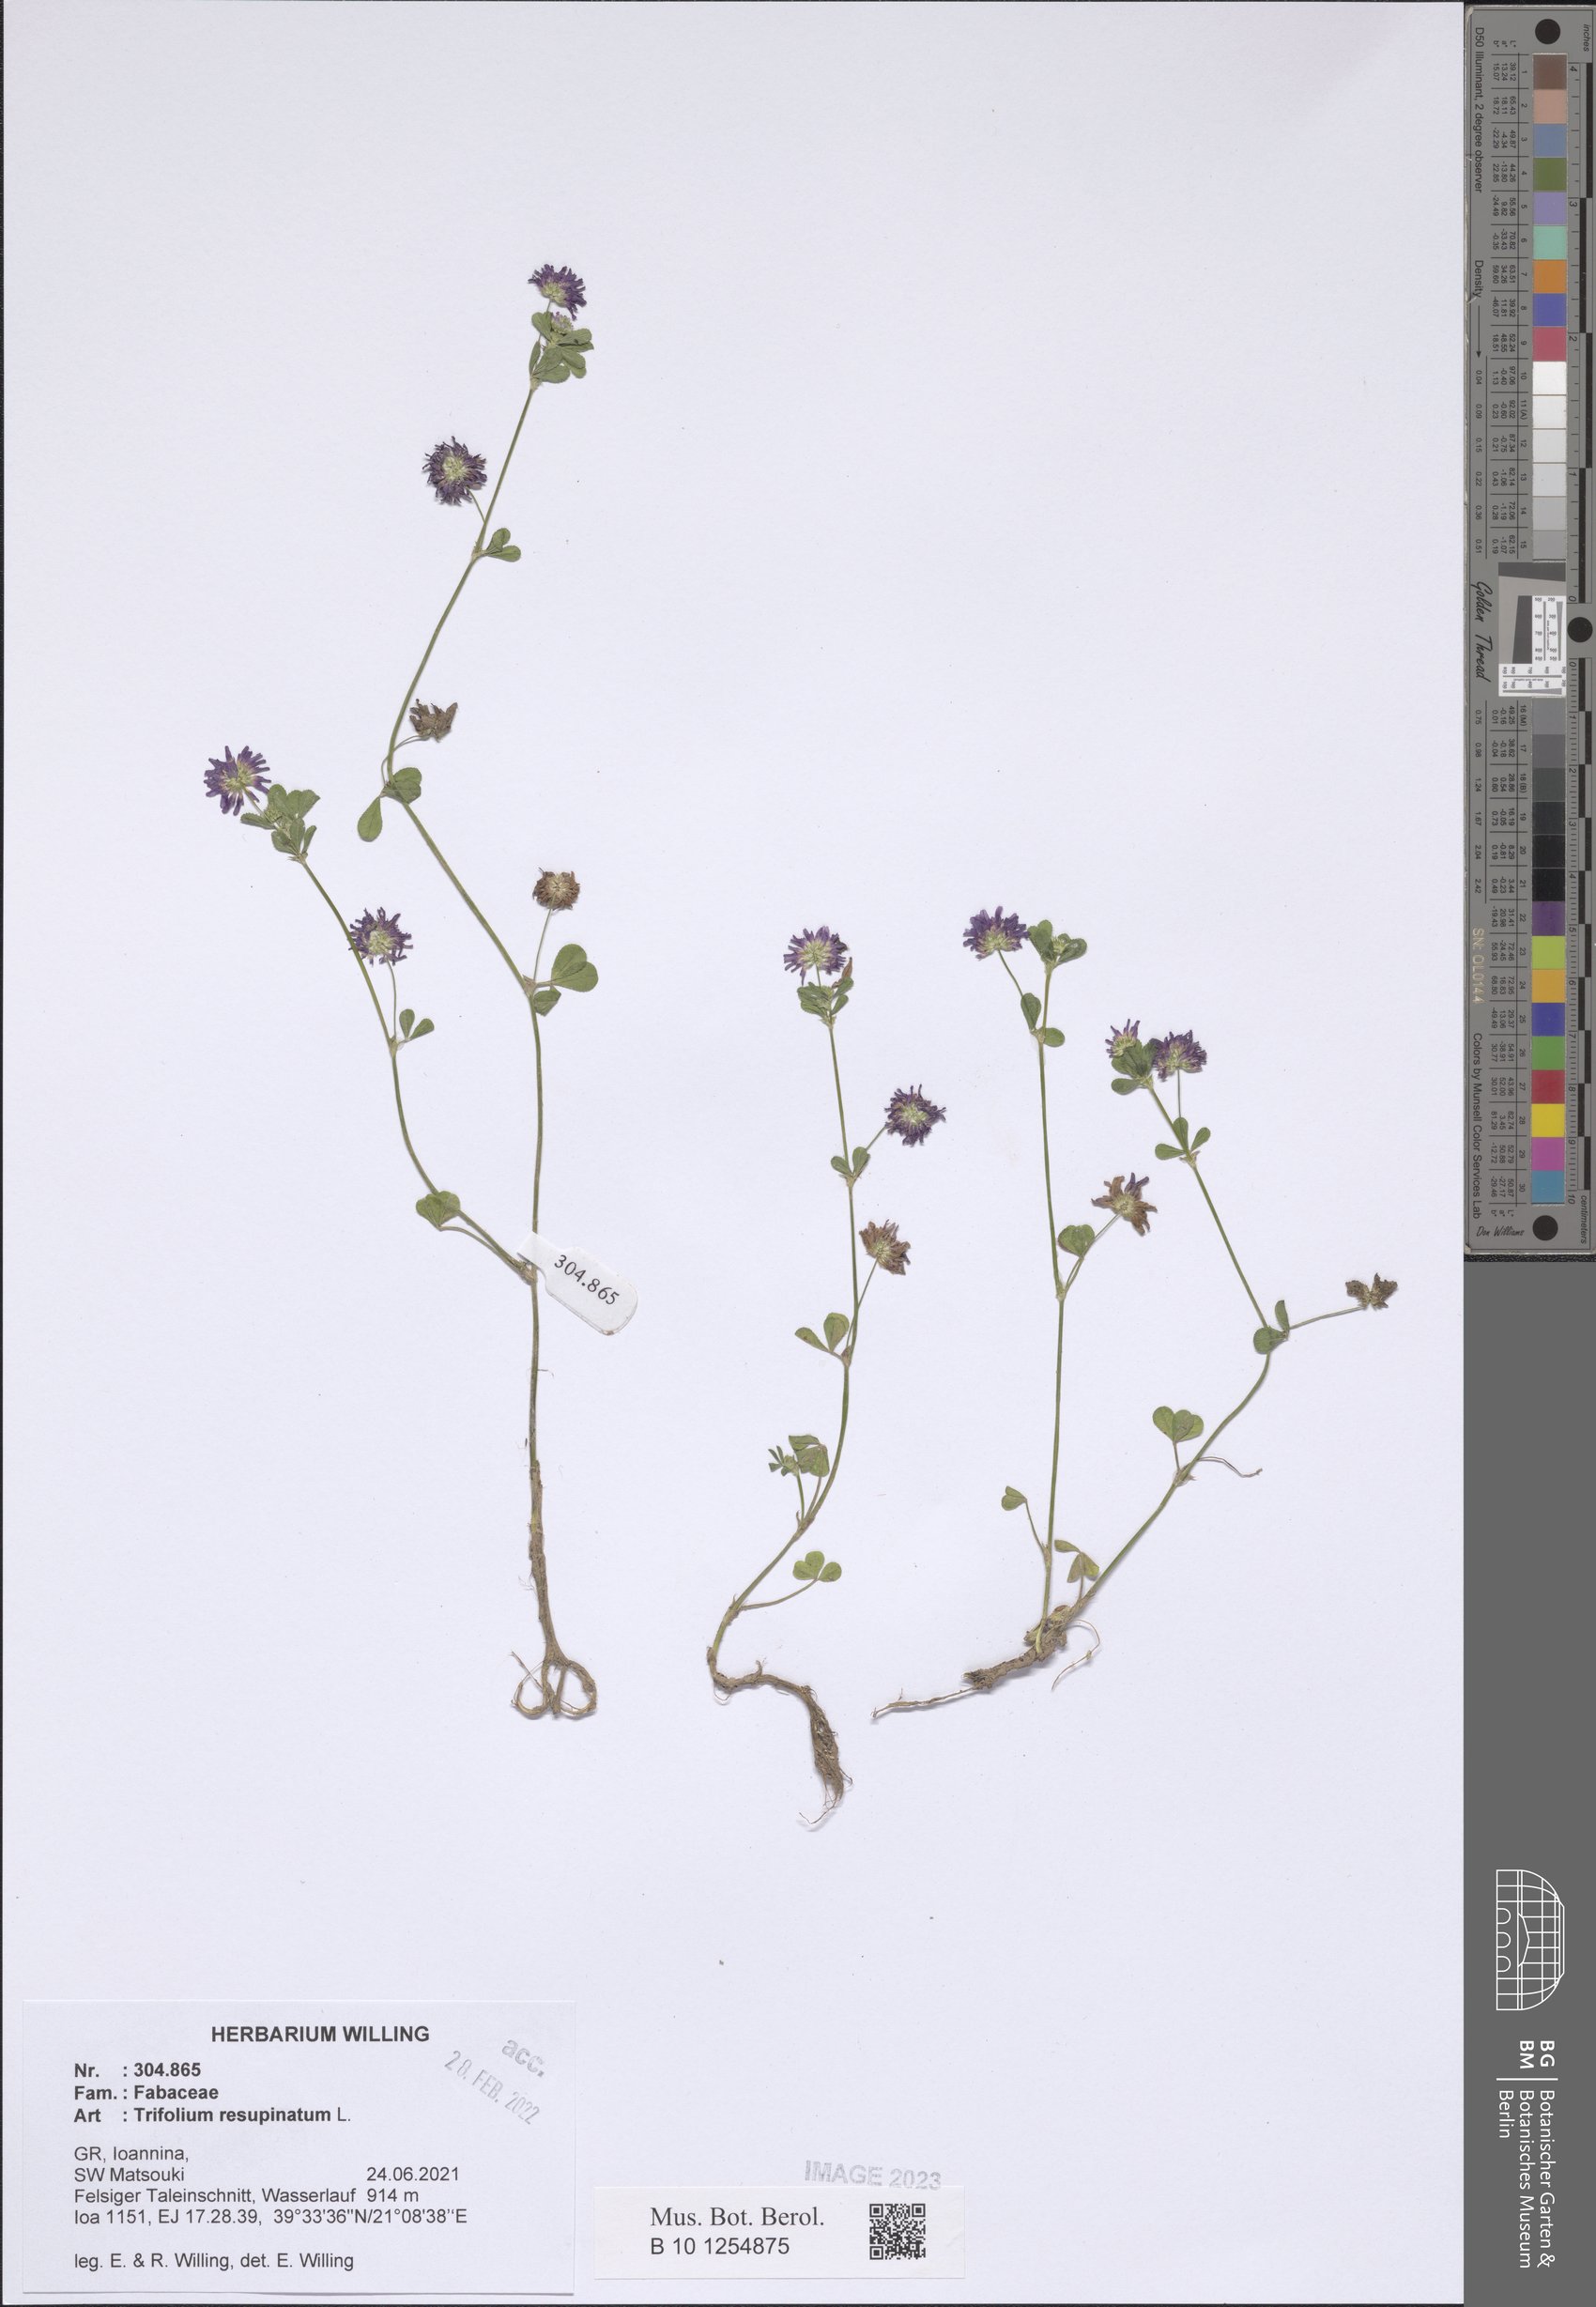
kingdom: Plantae
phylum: Tracheophyta
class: Magnoliopsida
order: Fabales
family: Fabaceae
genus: Trifolium
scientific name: Trifolium resupinatum
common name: Reversed clover
